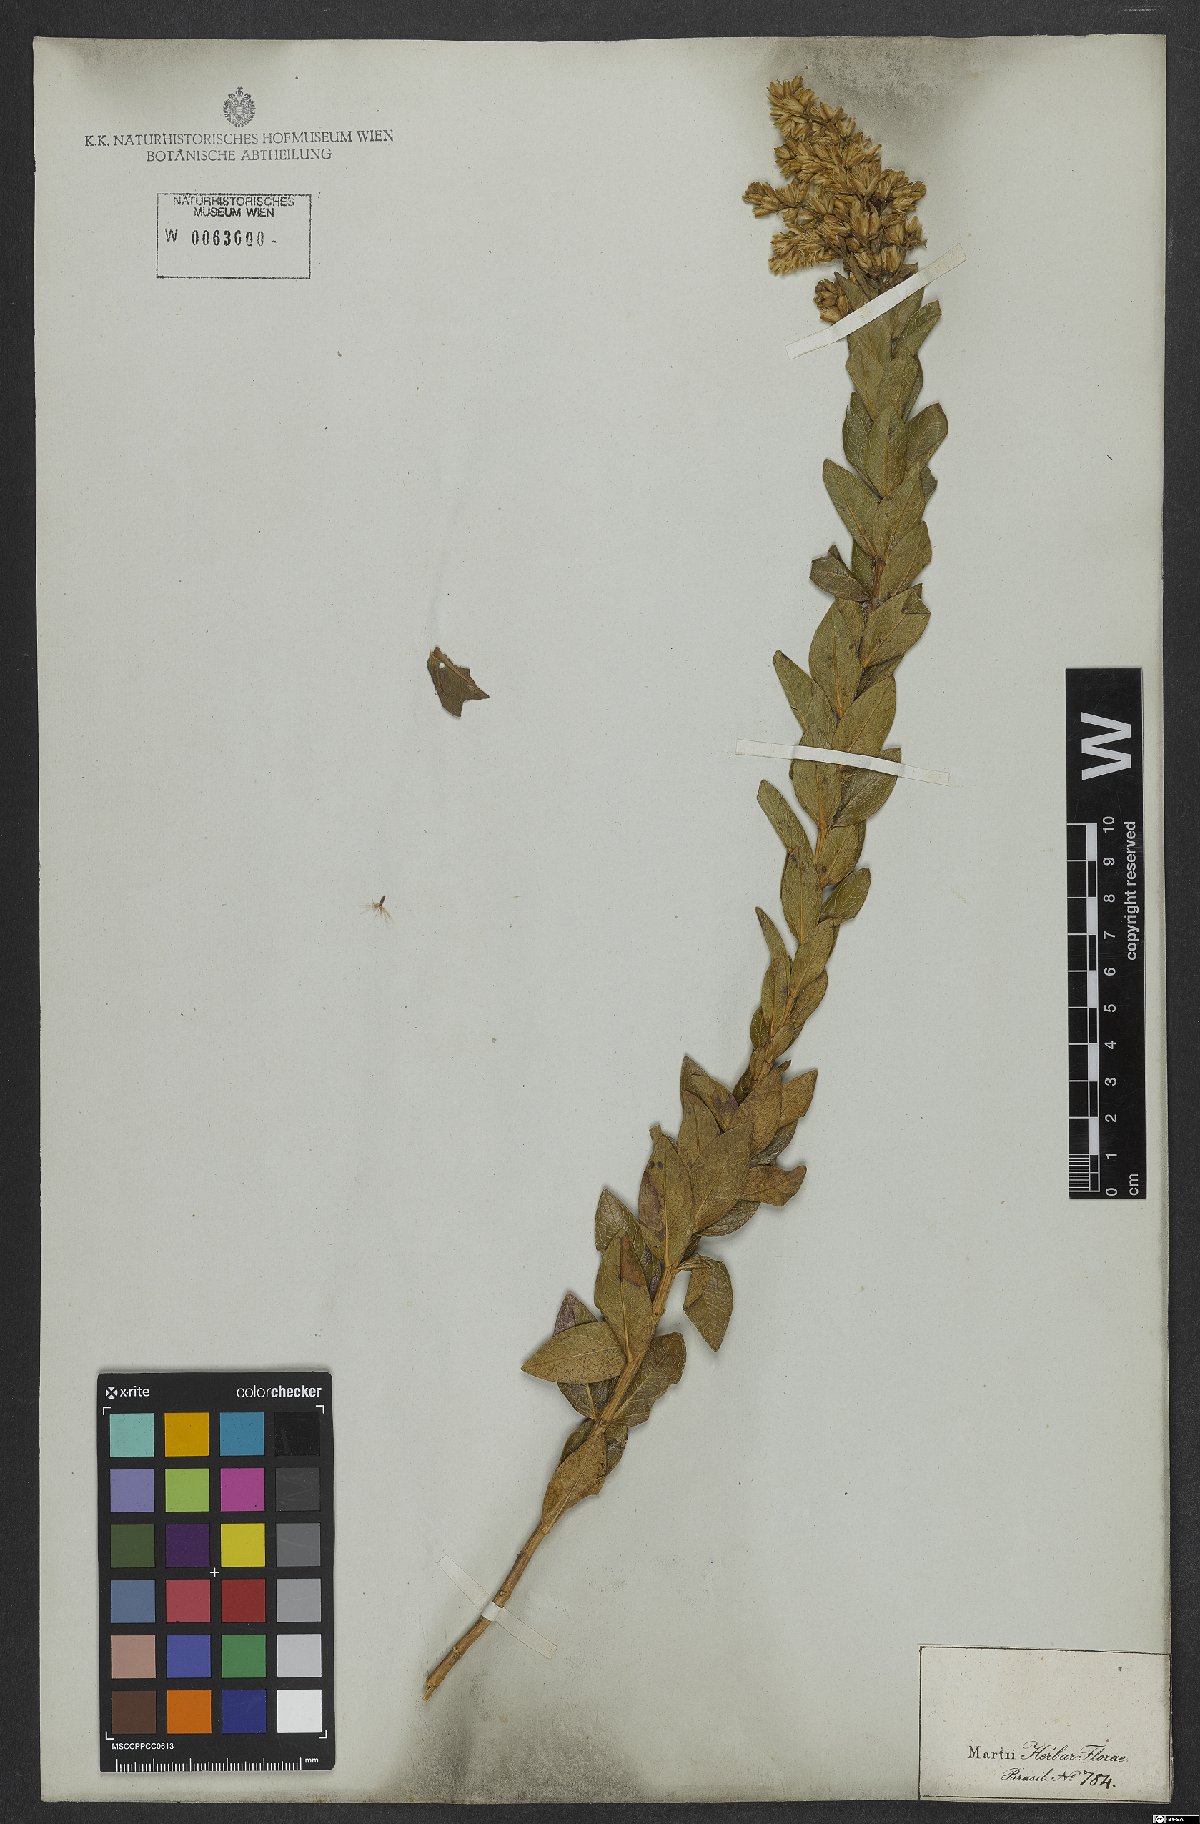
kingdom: Plantae
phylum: Tracheophyta
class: Magnoliopsida
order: Asterales
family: Asteraceae
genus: Mikania
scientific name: Mikania oblongifolia
